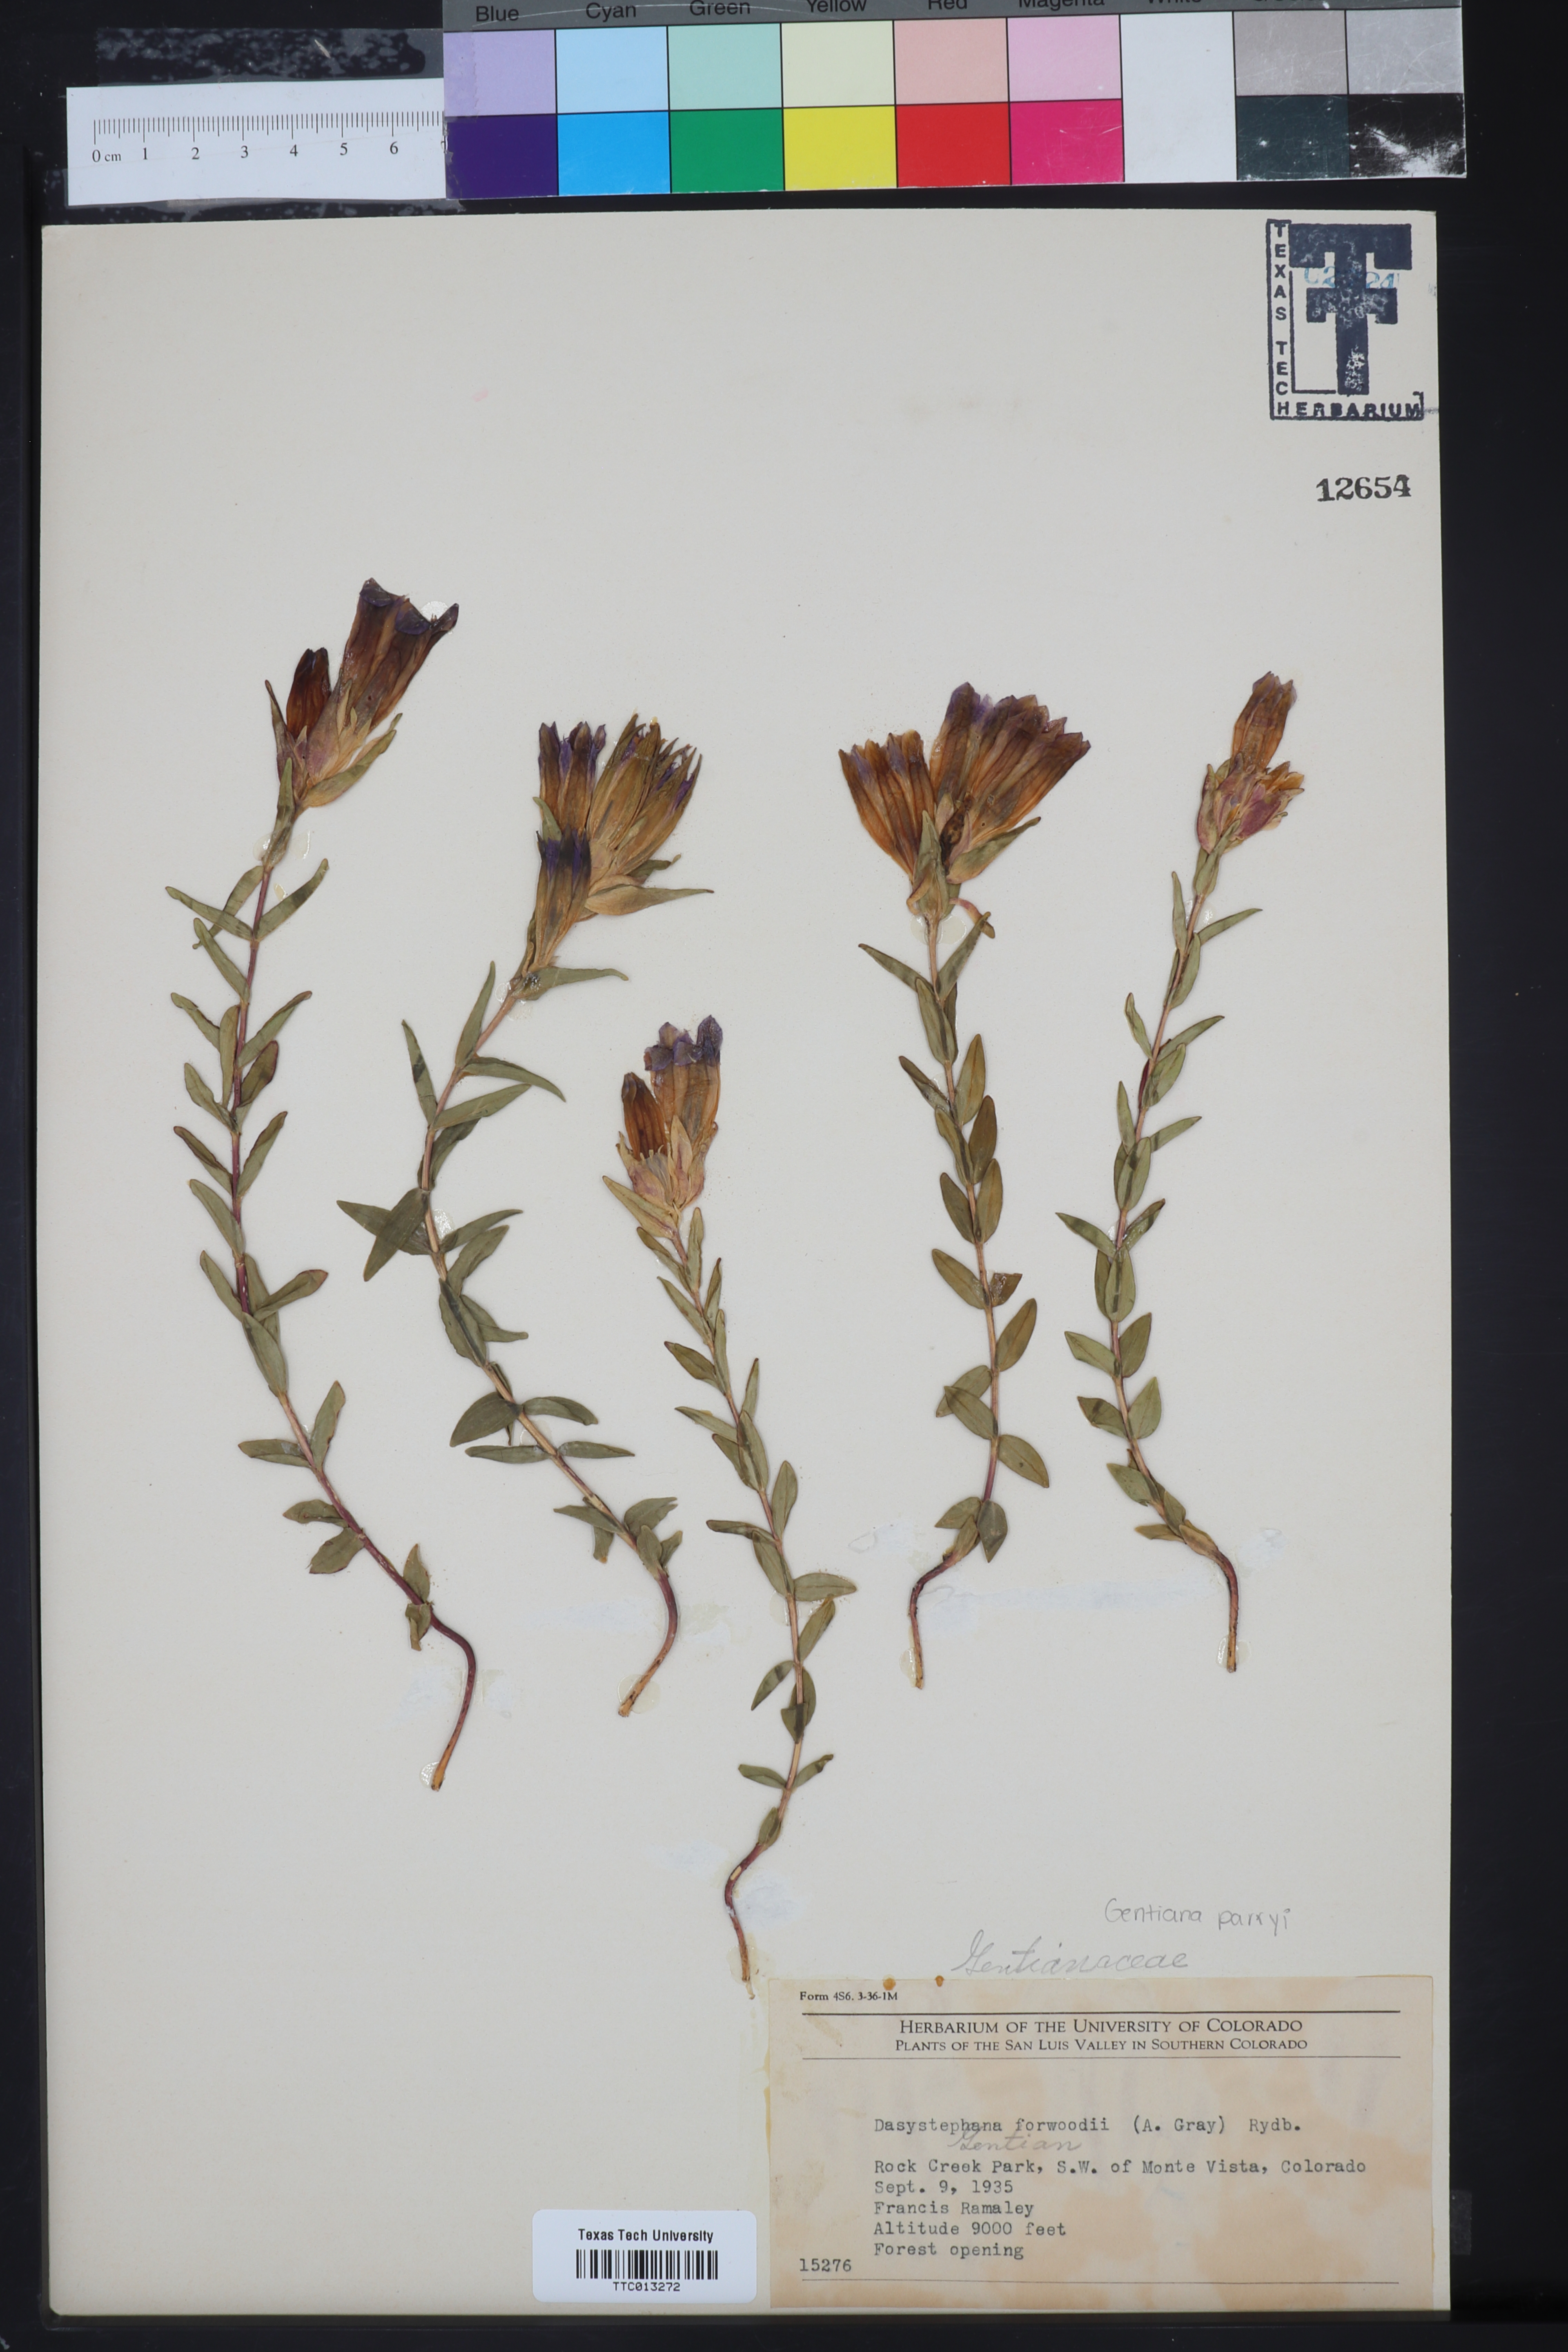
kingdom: Plantae
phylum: Tracheophyta
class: Magnoliopsida
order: Gentianales
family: Gentianaceae
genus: Gentiana
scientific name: Gentiana affinis
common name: Rocky mountain gentian
